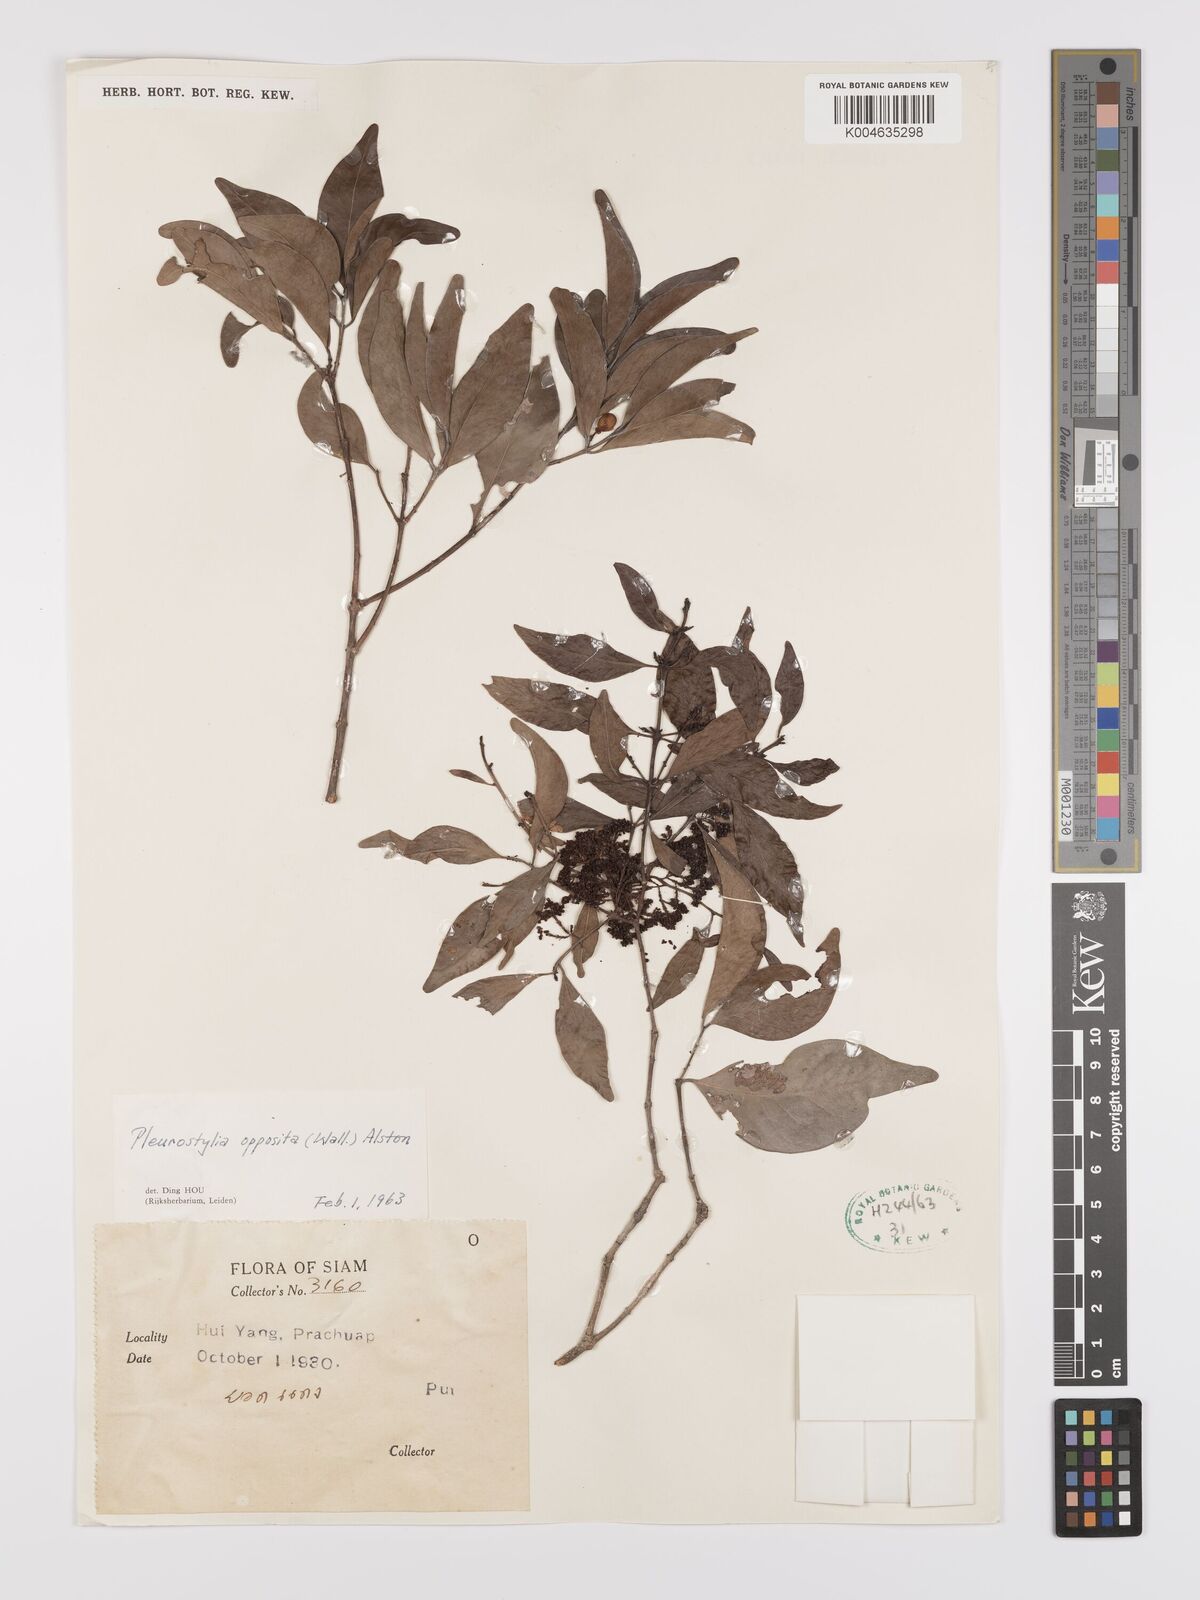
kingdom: Plantae
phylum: Tracheophyta
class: Magnoliopsida
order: Celastrales
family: Celastraceae
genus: Pleurostylia
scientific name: Pleurostylia opposita
